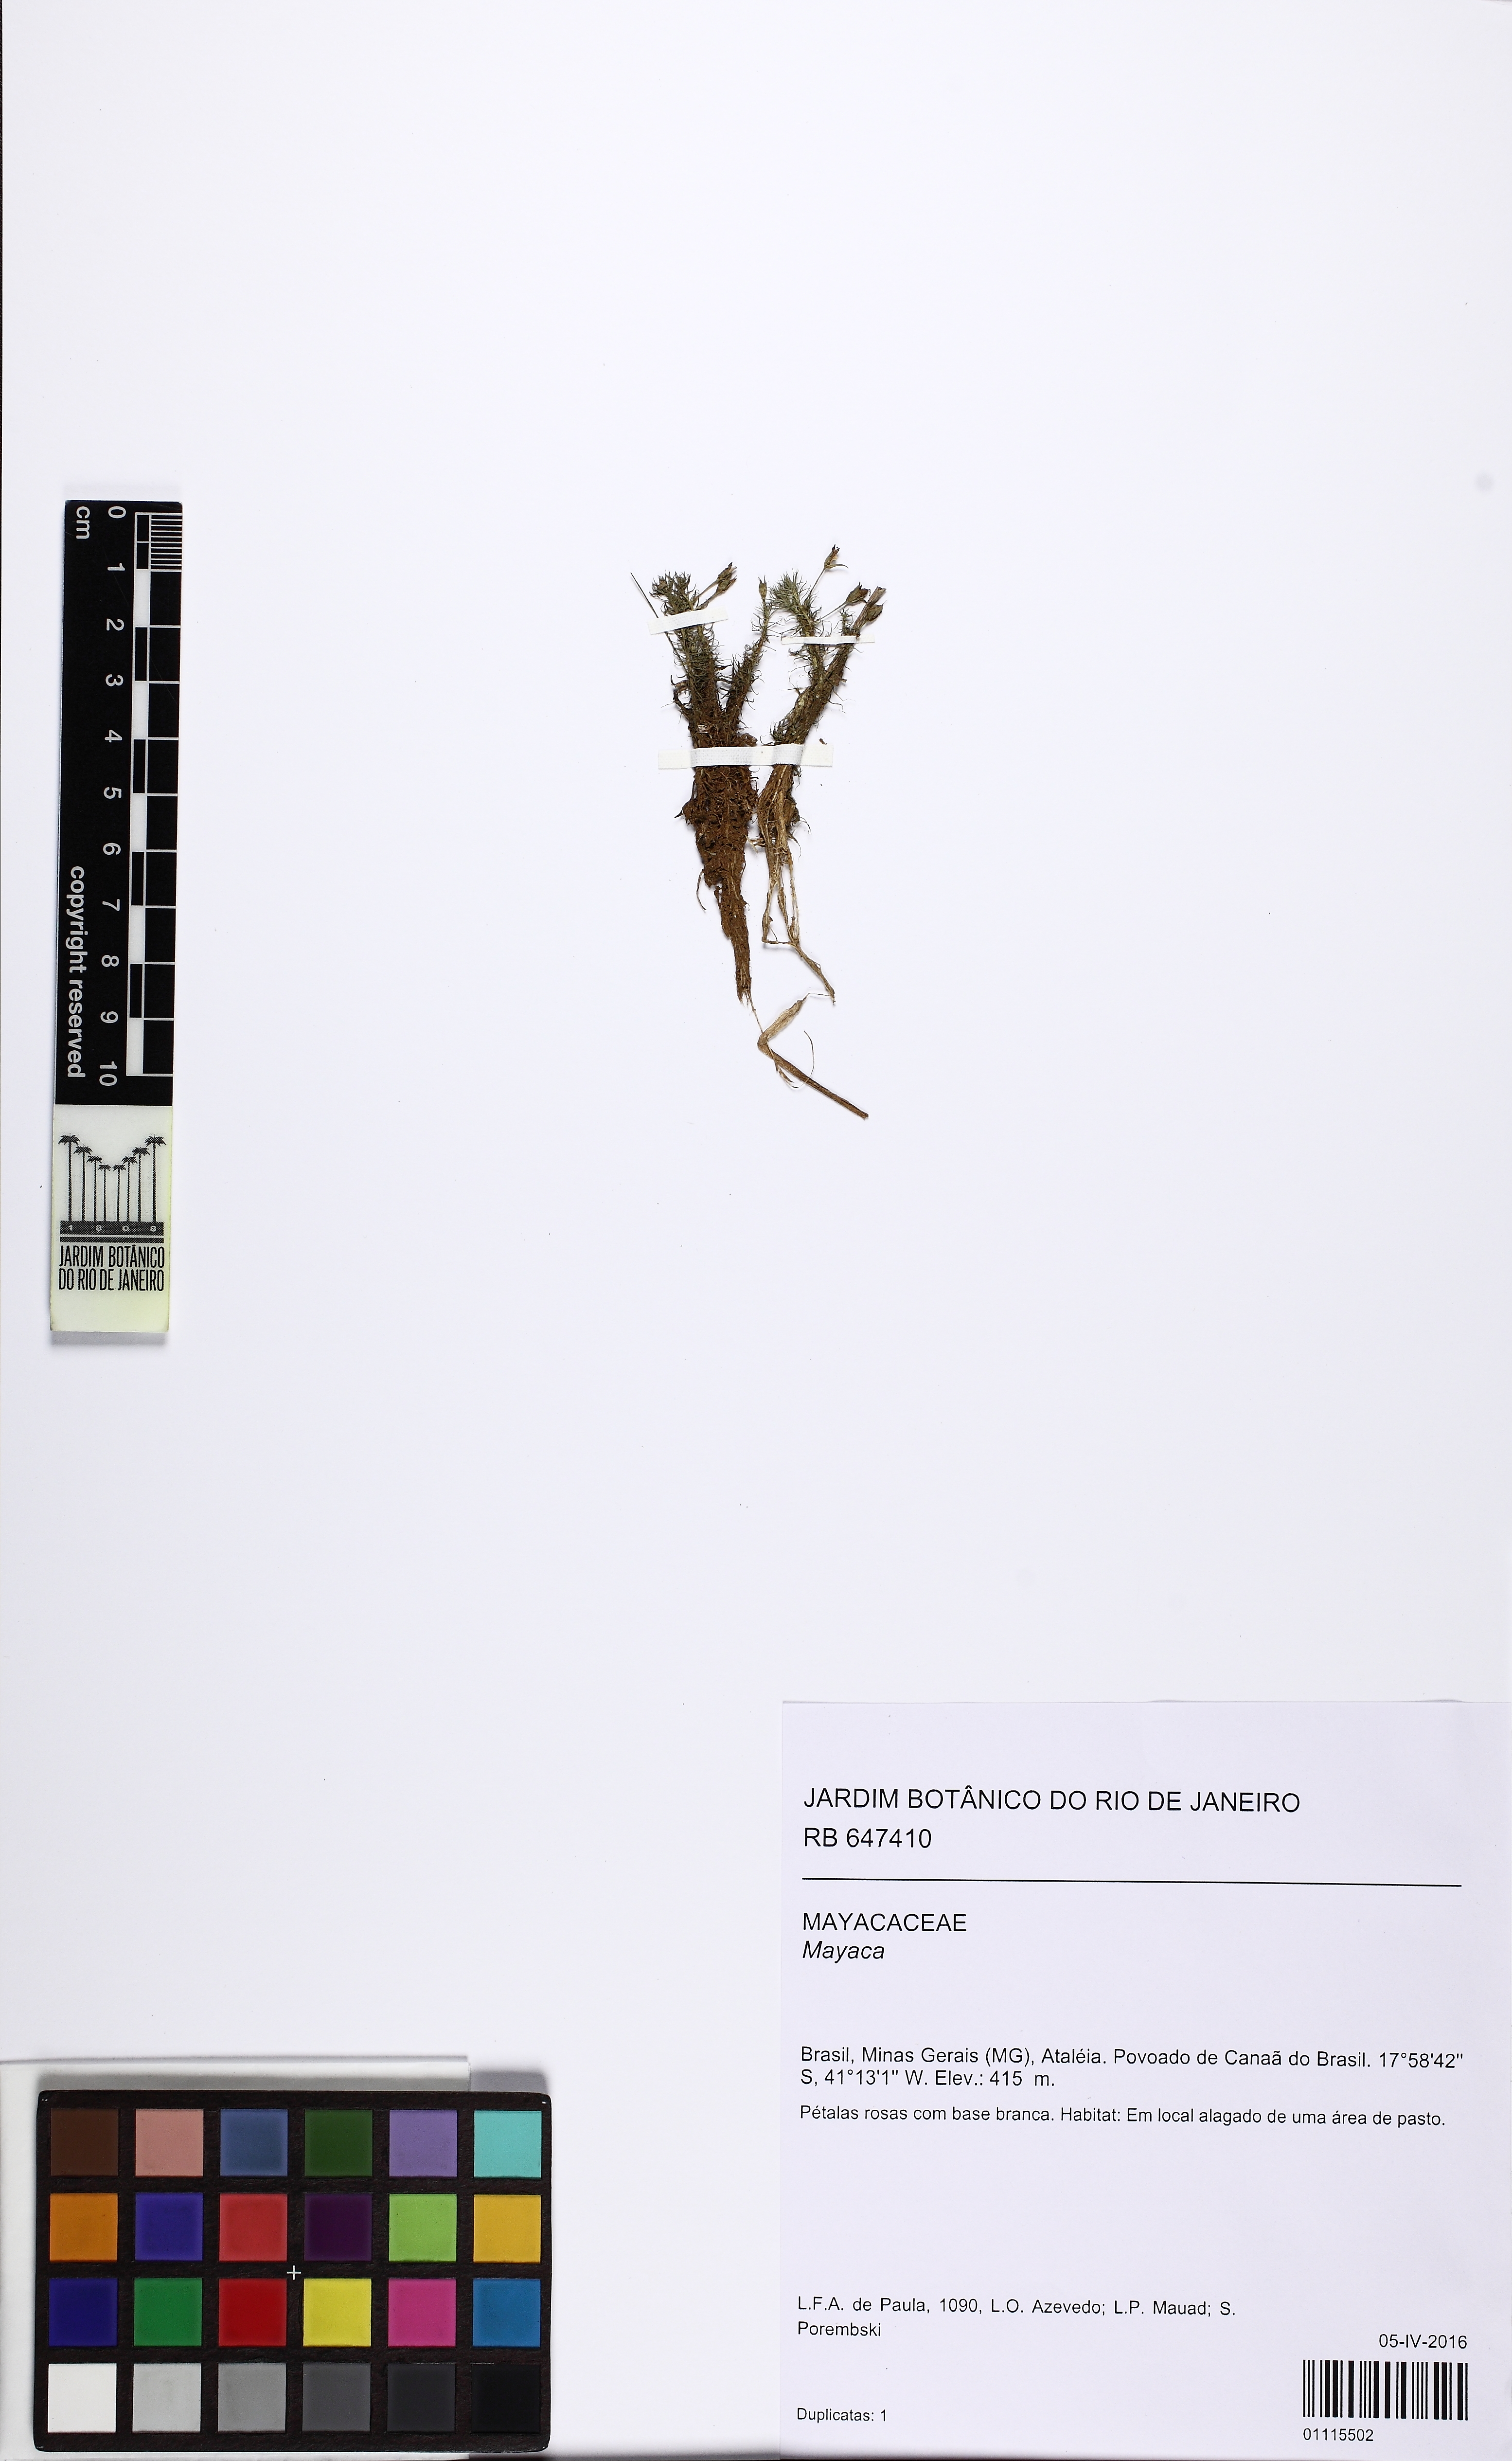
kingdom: Plantae
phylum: Tracheophyta
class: Liliopsida
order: Poales
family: Mayacaceae
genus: Mayaca
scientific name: Mayaca
